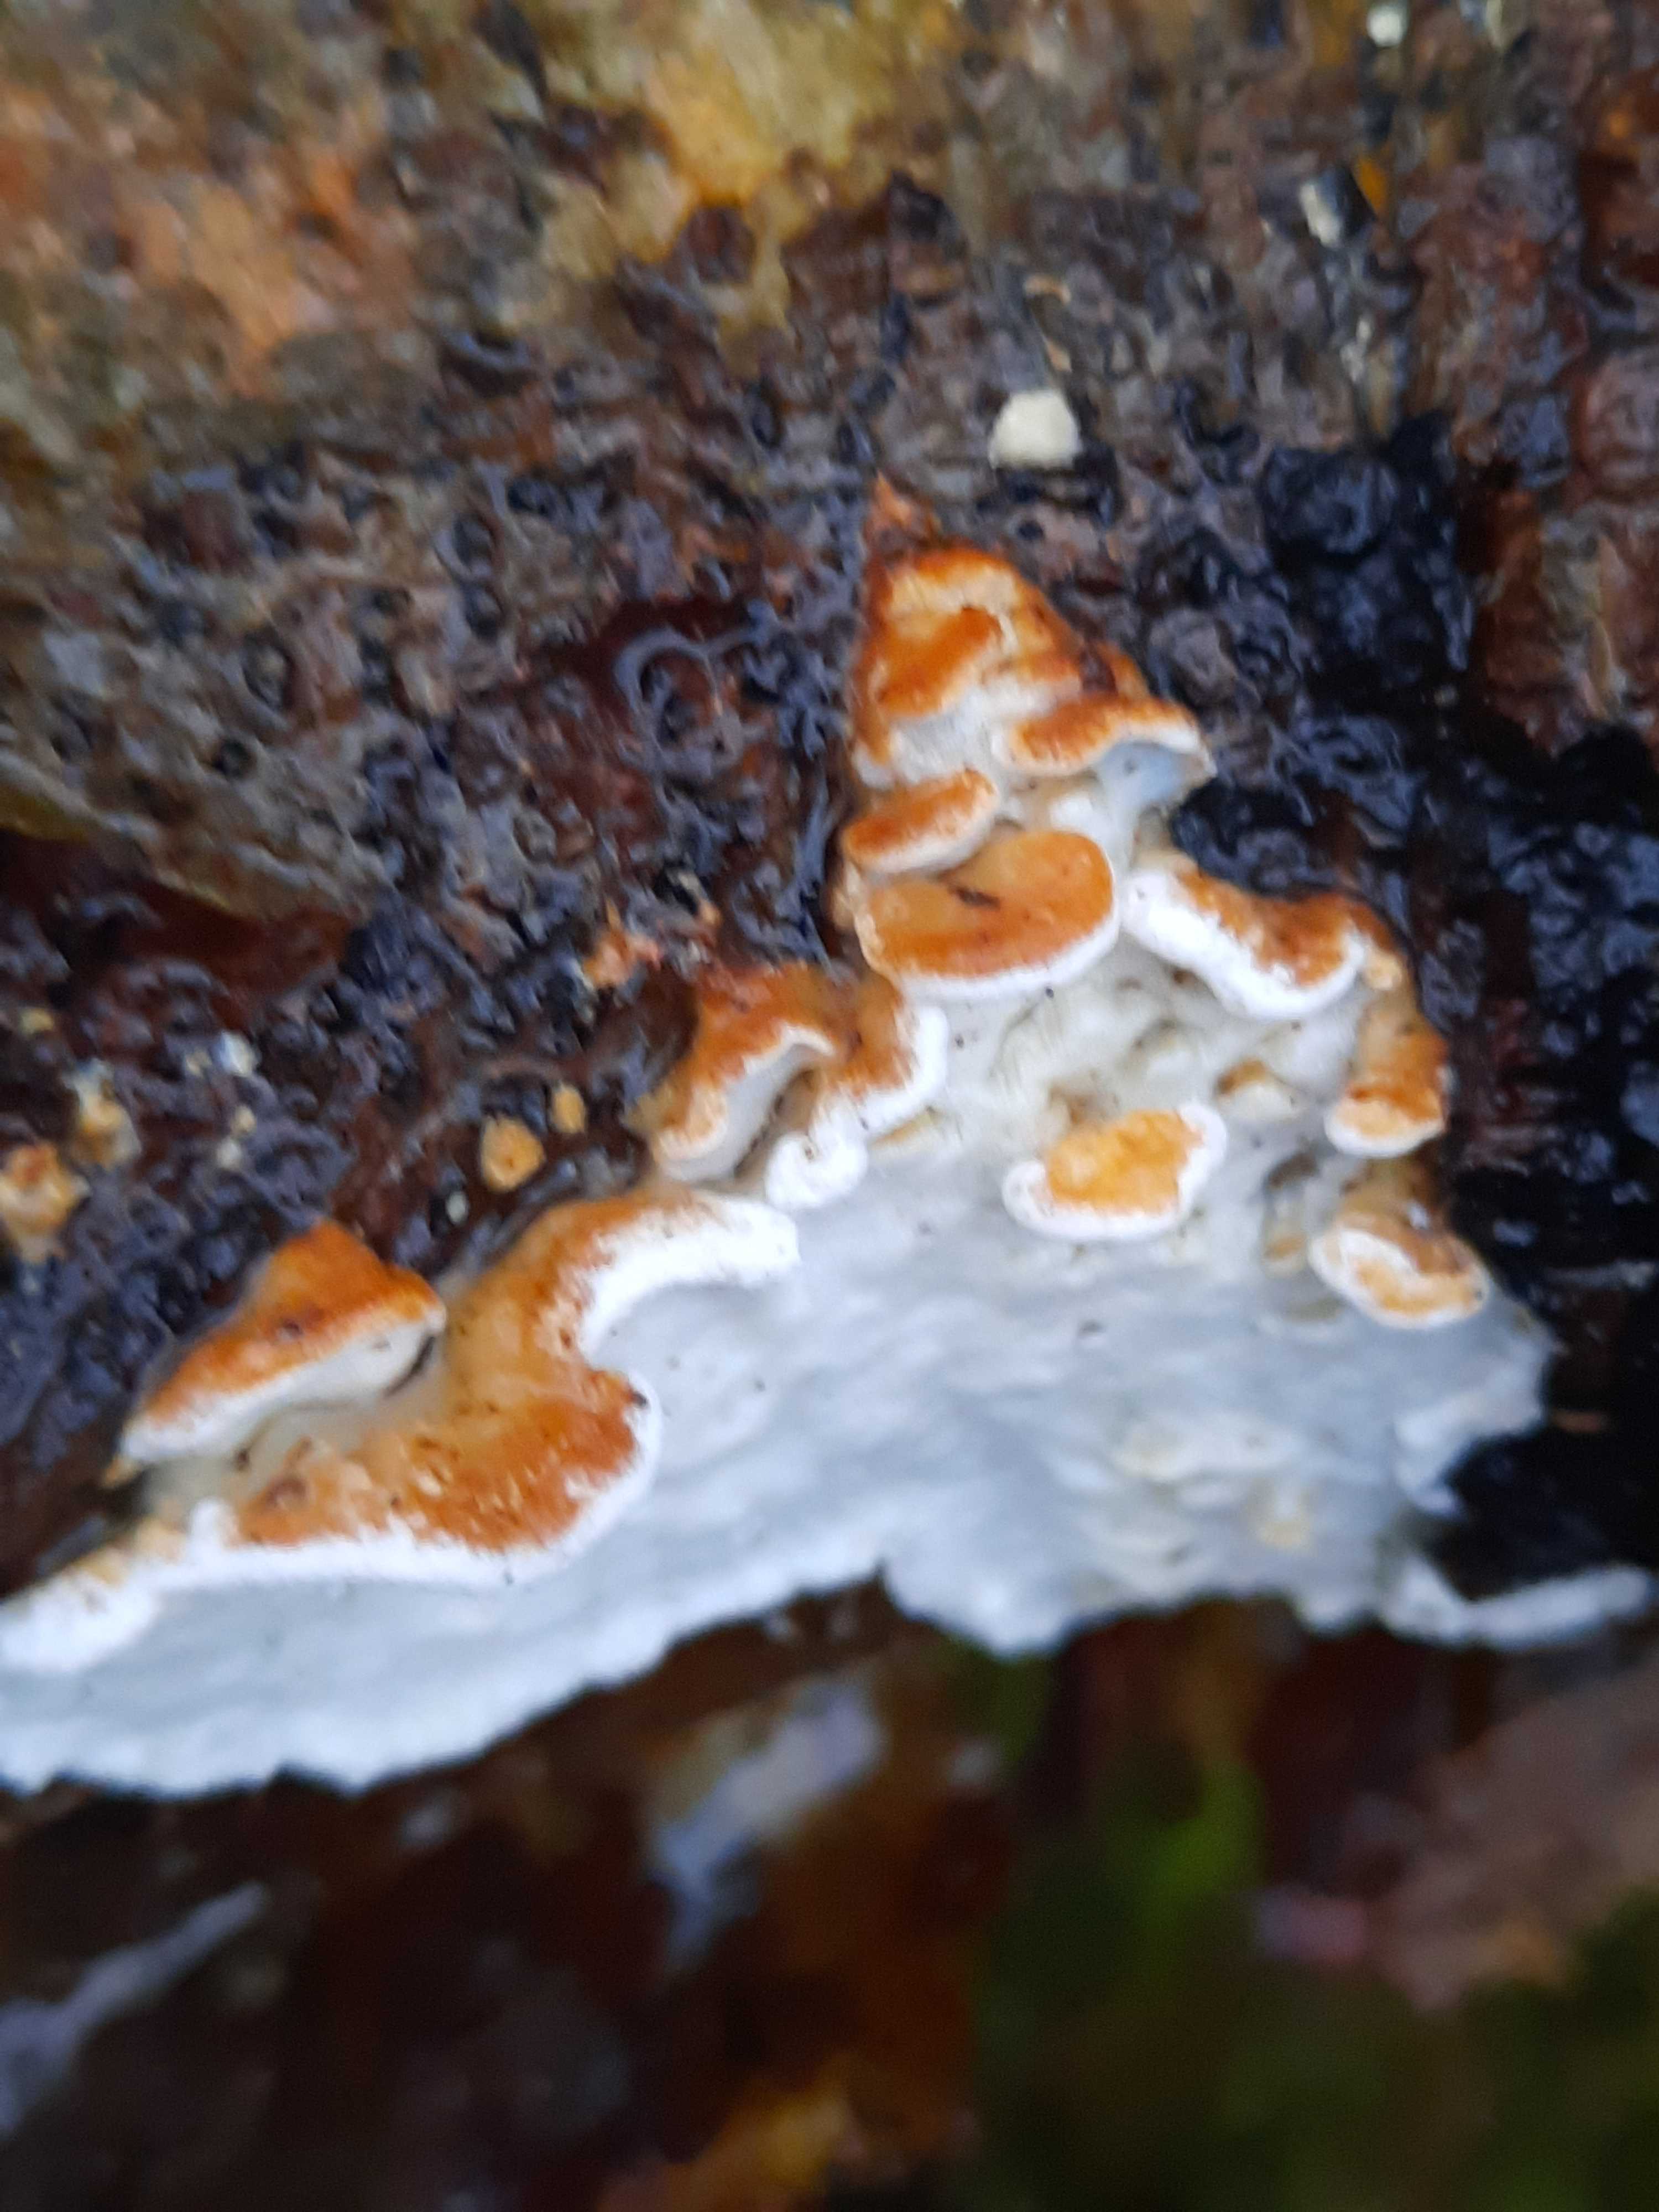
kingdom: Fungi
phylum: Basidiomycota
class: Agaricomycetes
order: Polyporales
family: Incrustoporiaceae
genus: Skeletocutis
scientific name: Skeletocutis nemoralis
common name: stor krystalporesvamp
